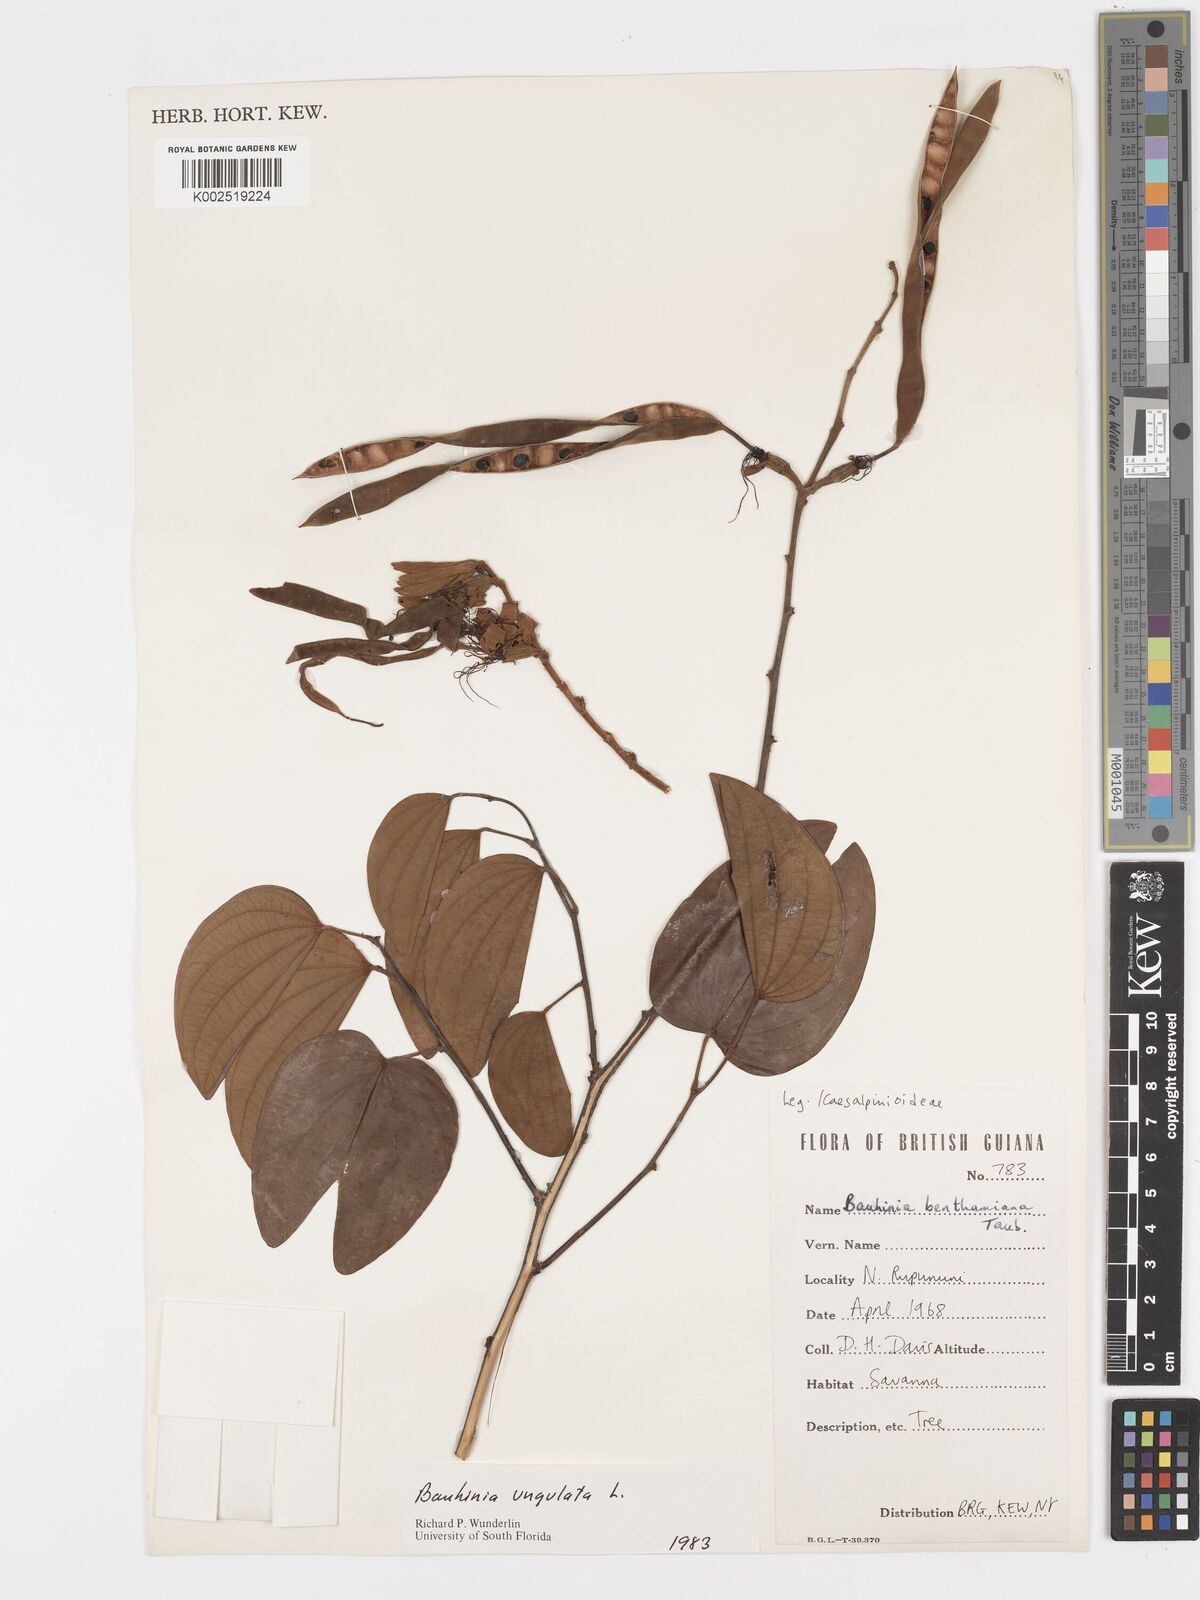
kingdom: Plantae
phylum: Tracheophyta
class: Magnoliopsida
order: Fabales
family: Fabaceae
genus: Bauhinia
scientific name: Bauhinia ungulata
